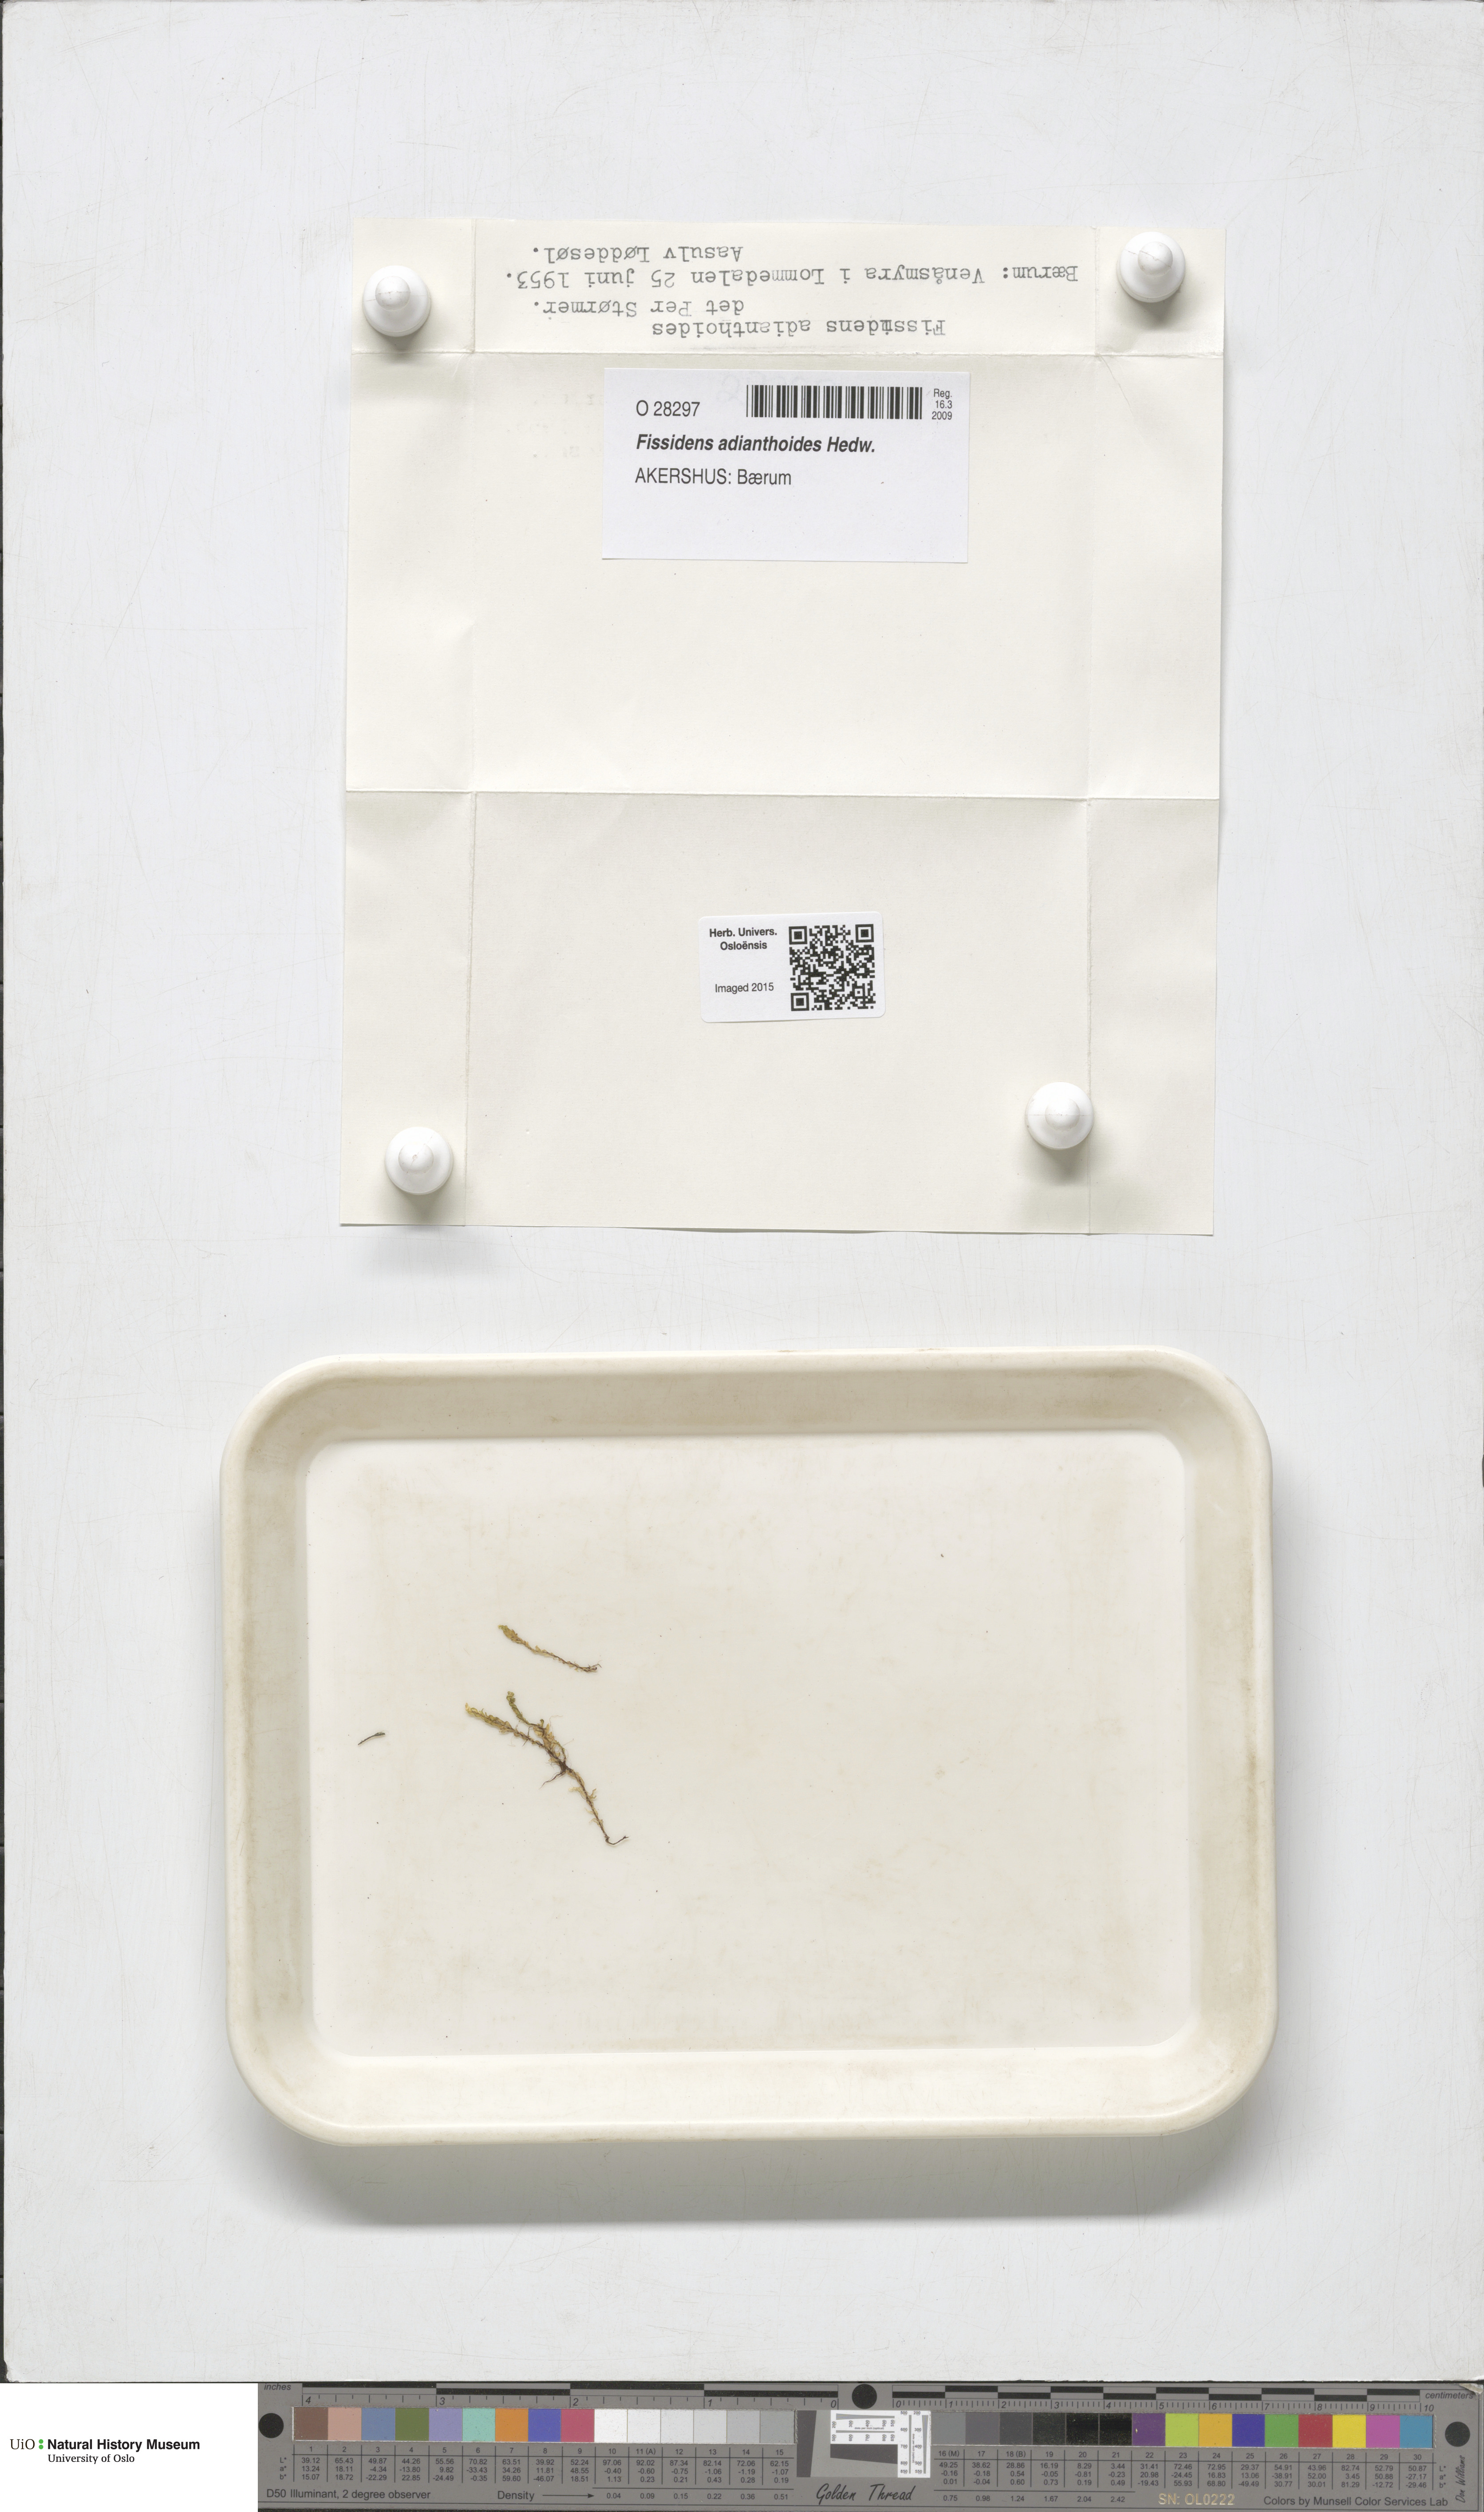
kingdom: Plantae
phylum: Bryophyta
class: Bryopsida
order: Dicranales
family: Fissidentaceae
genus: Fissidens
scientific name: Fissidens adianthoides
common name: Maidenhair pocket moss
